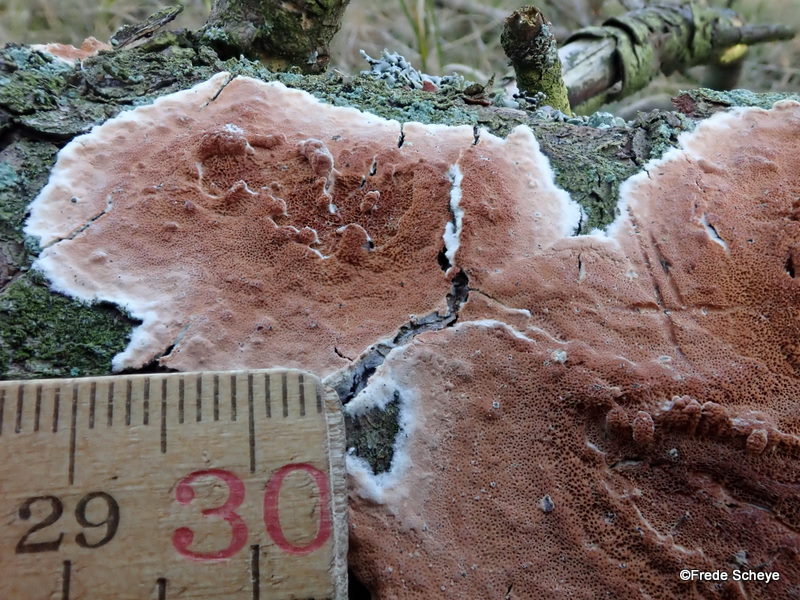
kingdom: Fungi
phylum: Basidiomycota
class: Agaricomycetes
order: Polyporales
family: Irpicaceae
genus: Meruliopsis
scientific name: Meruliopsis taxicola
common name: purpurbrun foldporesvamp
